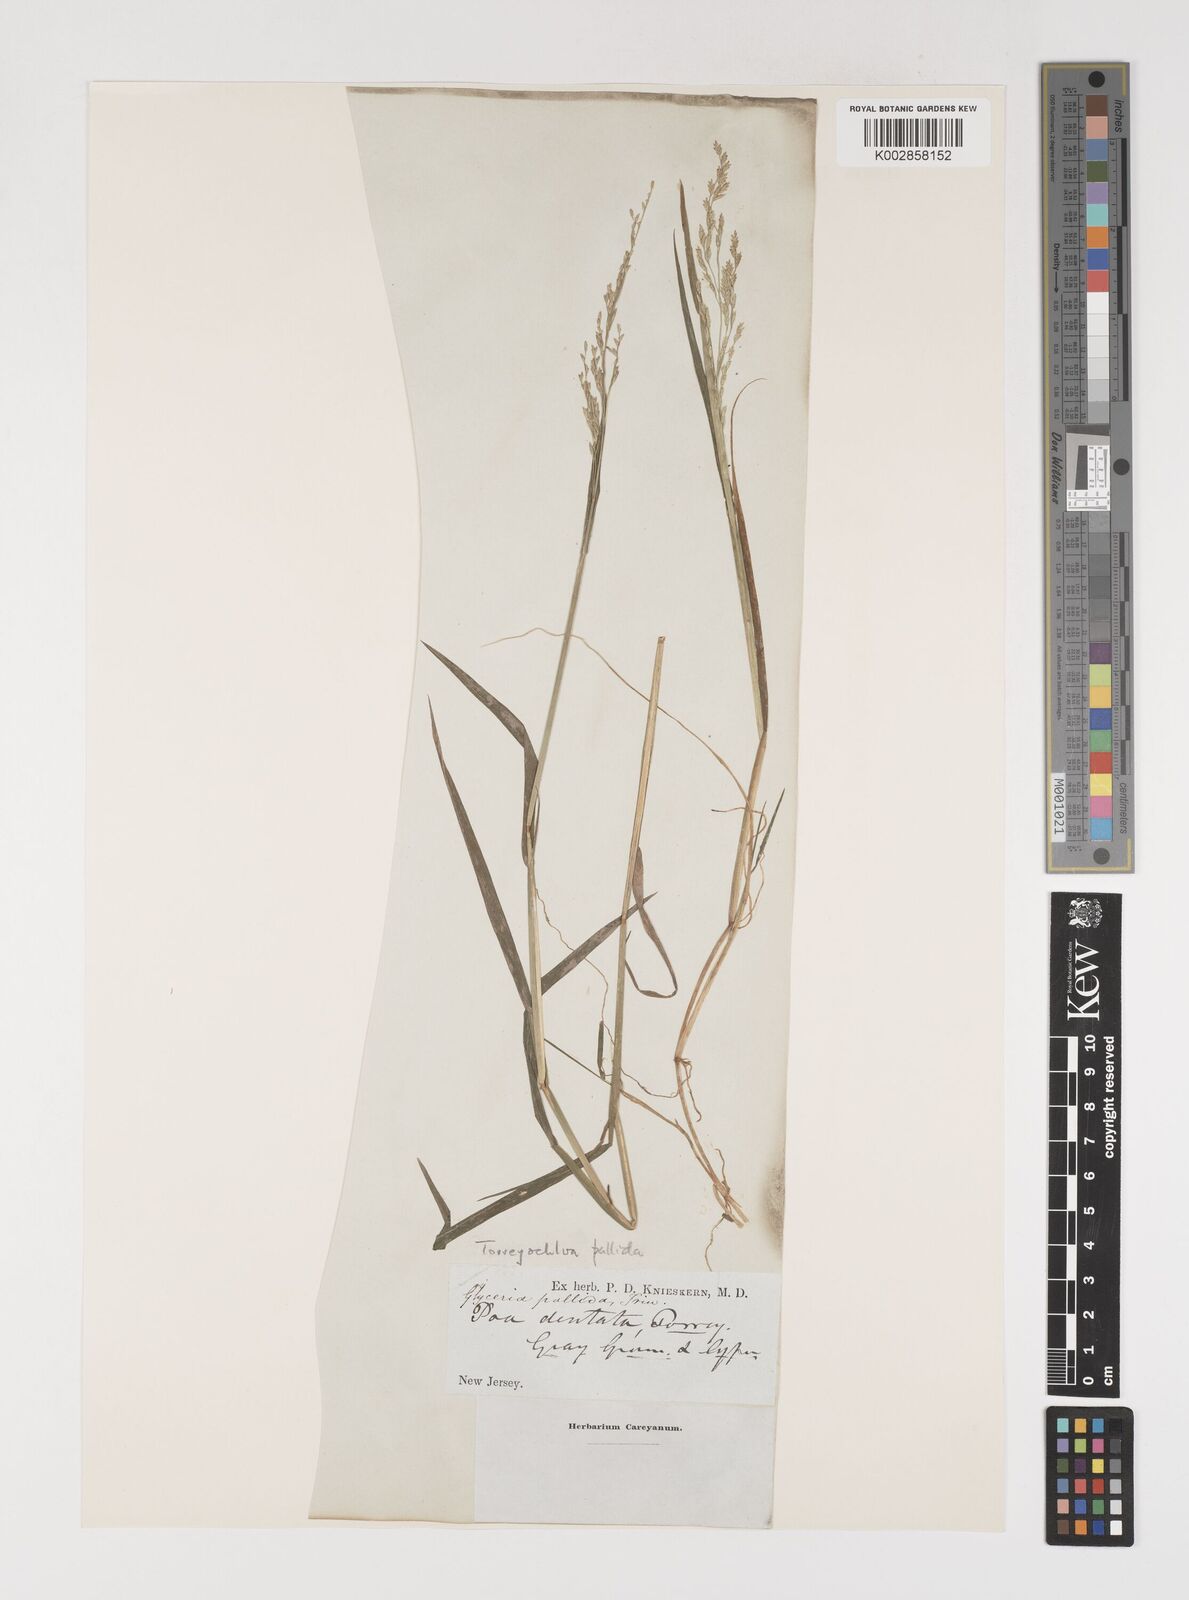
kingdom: Plantae
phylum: Tracheophyta
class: Liliopsida
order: Poales
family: Poaceae
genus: Torreyochloa
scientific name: Torreyochloa pallida
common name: Pale false mannagrass
